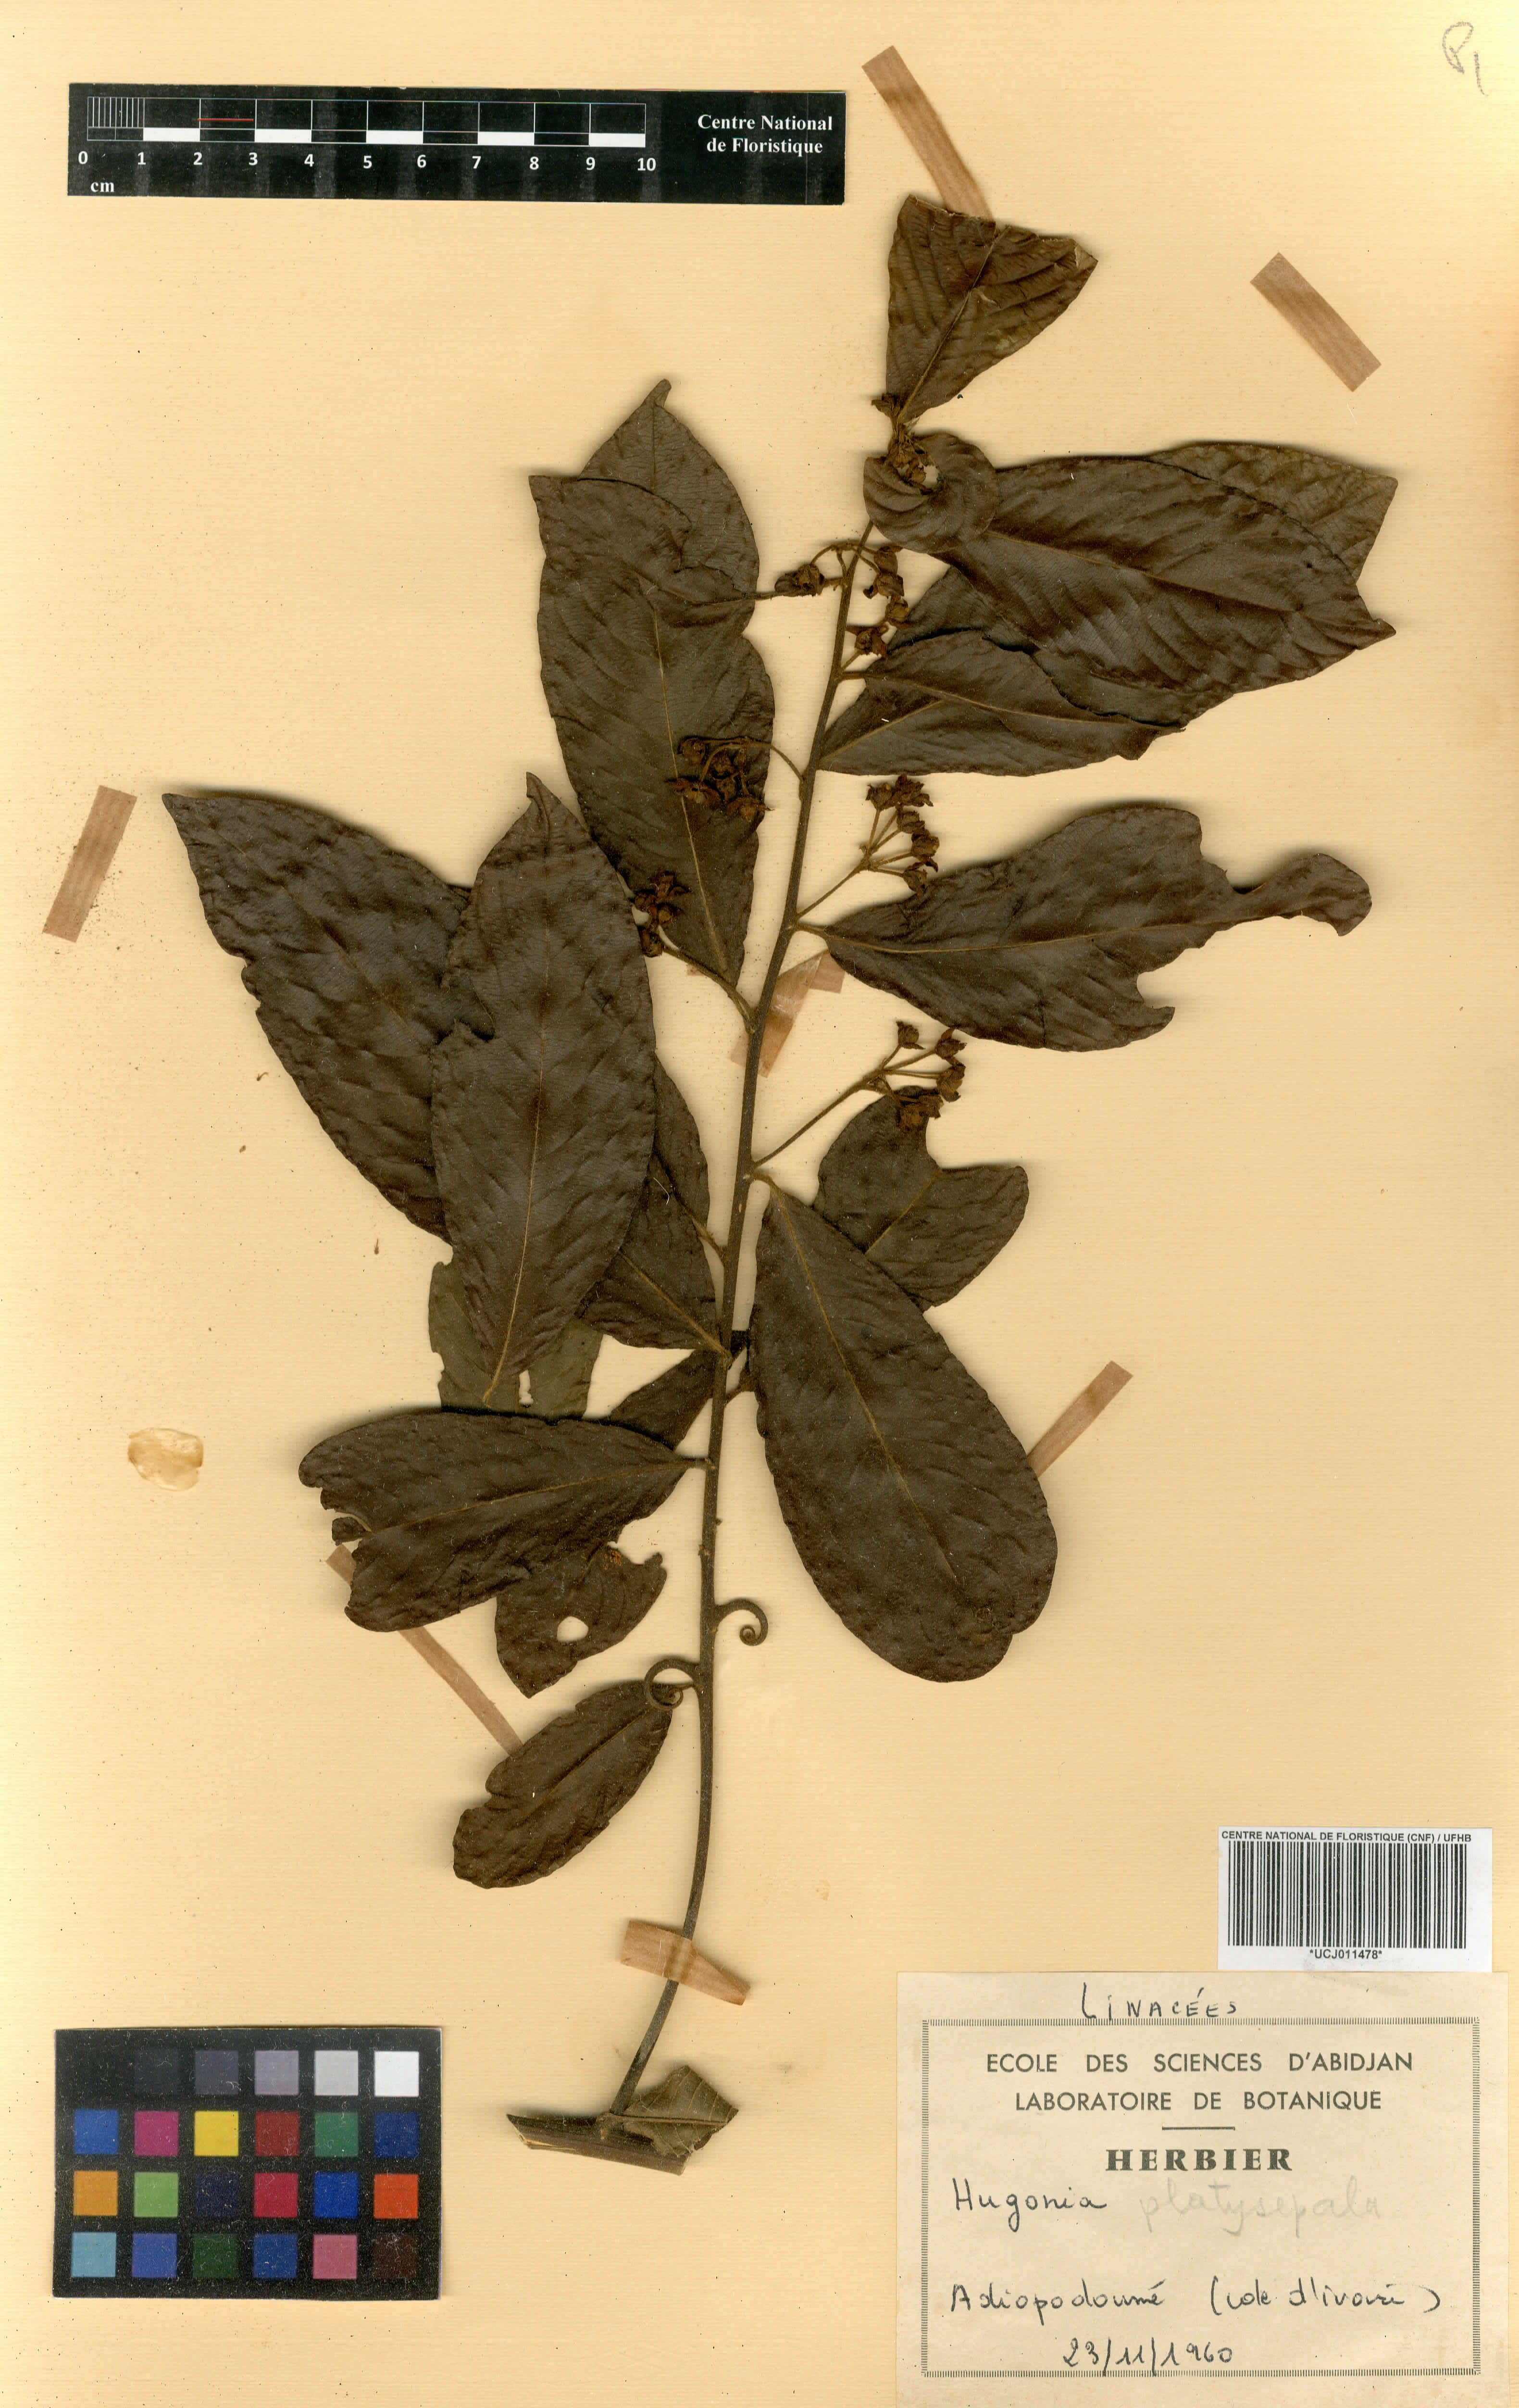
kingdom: Plantae
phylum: Tracheophyta
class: Magnoliopsida
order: Malpighiales
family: Linaceae
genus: Hugonia
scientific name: Hugonia rufipilis
